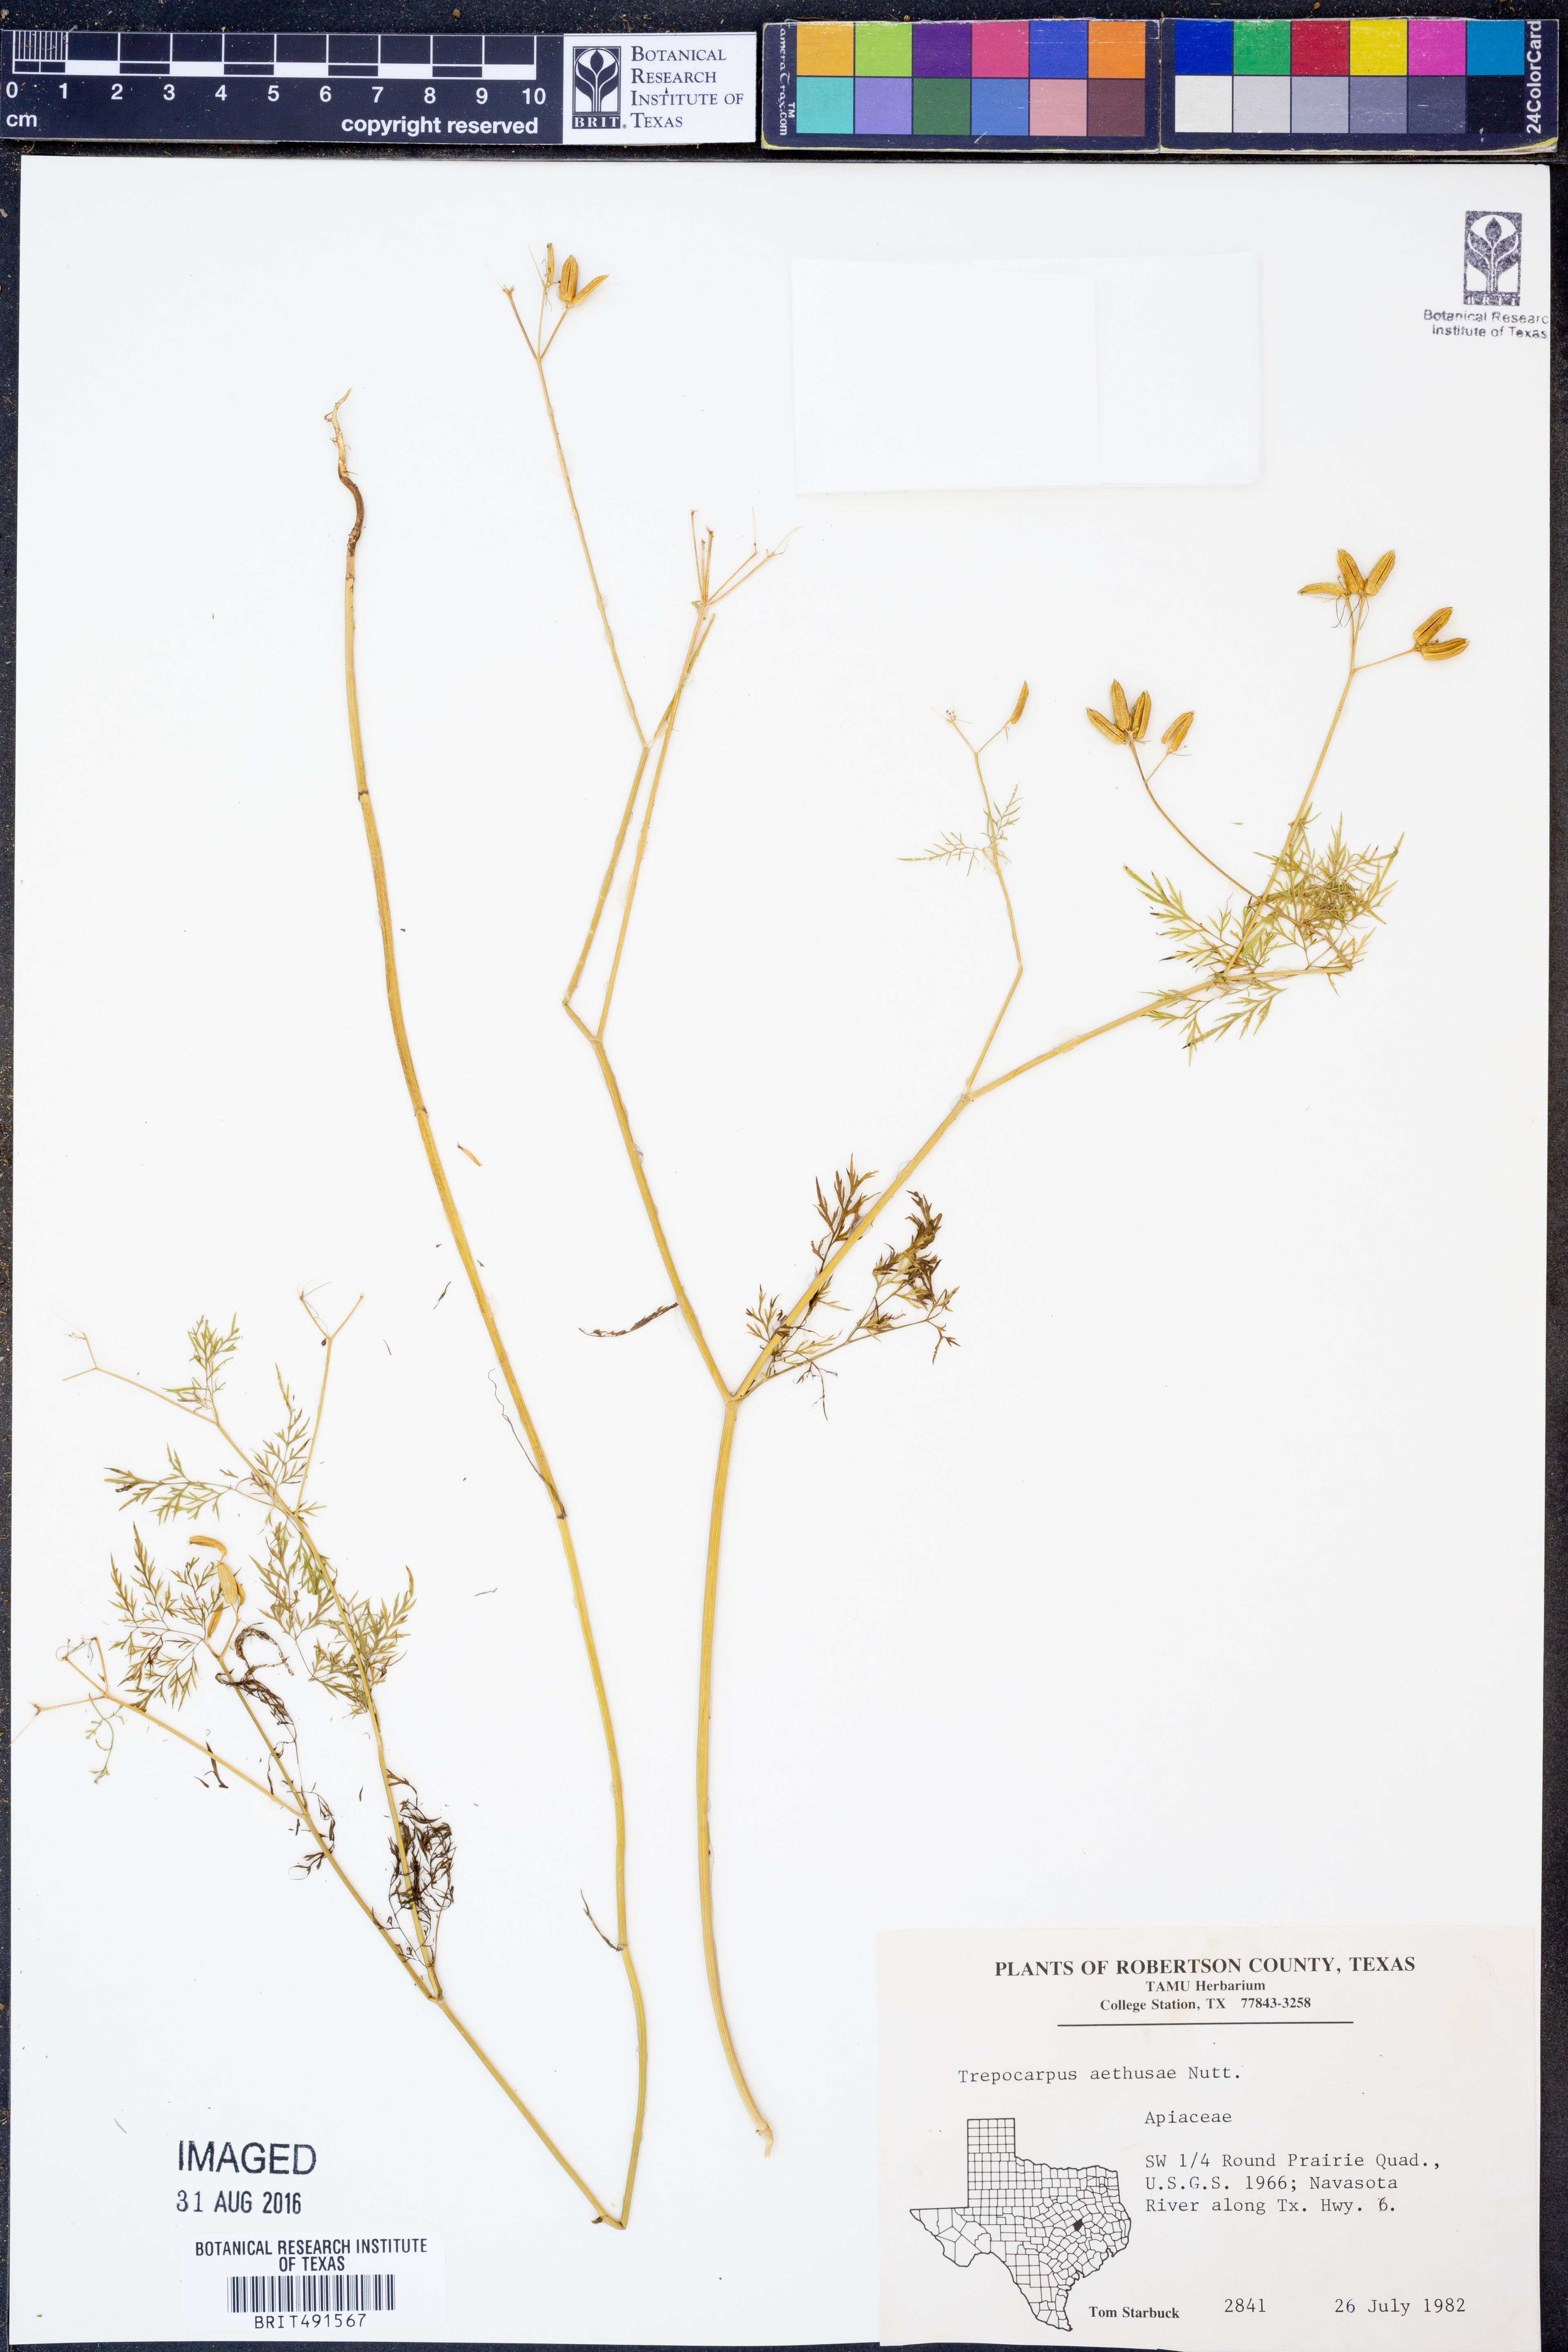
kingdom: Plantae
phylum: Tracheophyta
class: Magnoliopsida
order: Apiales
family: Apiaceae
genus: Trepocarpus
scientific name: Trepocarpus aethusae
